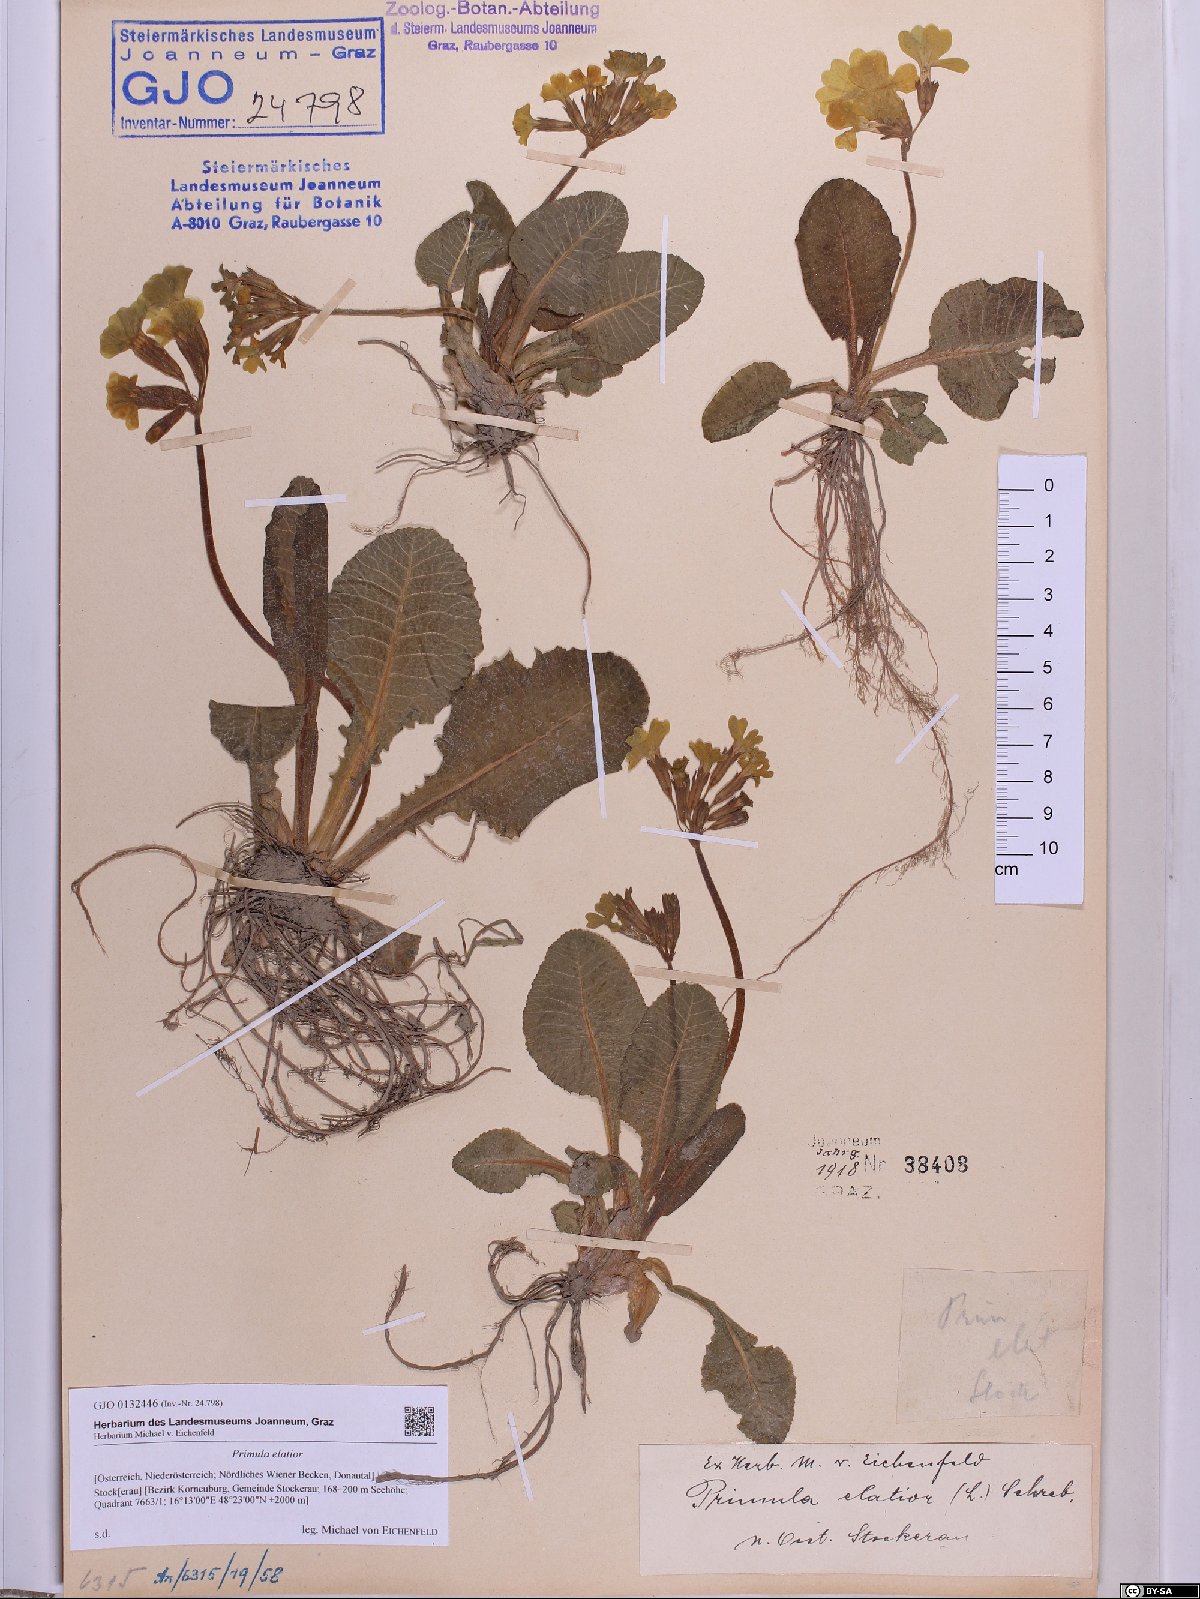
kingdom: Plantae
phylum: Tracheophyta
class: Magnoliopsida
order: Ericales
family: Primulaceae
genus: Primula
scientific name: Primula elatior
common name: Oxlip
